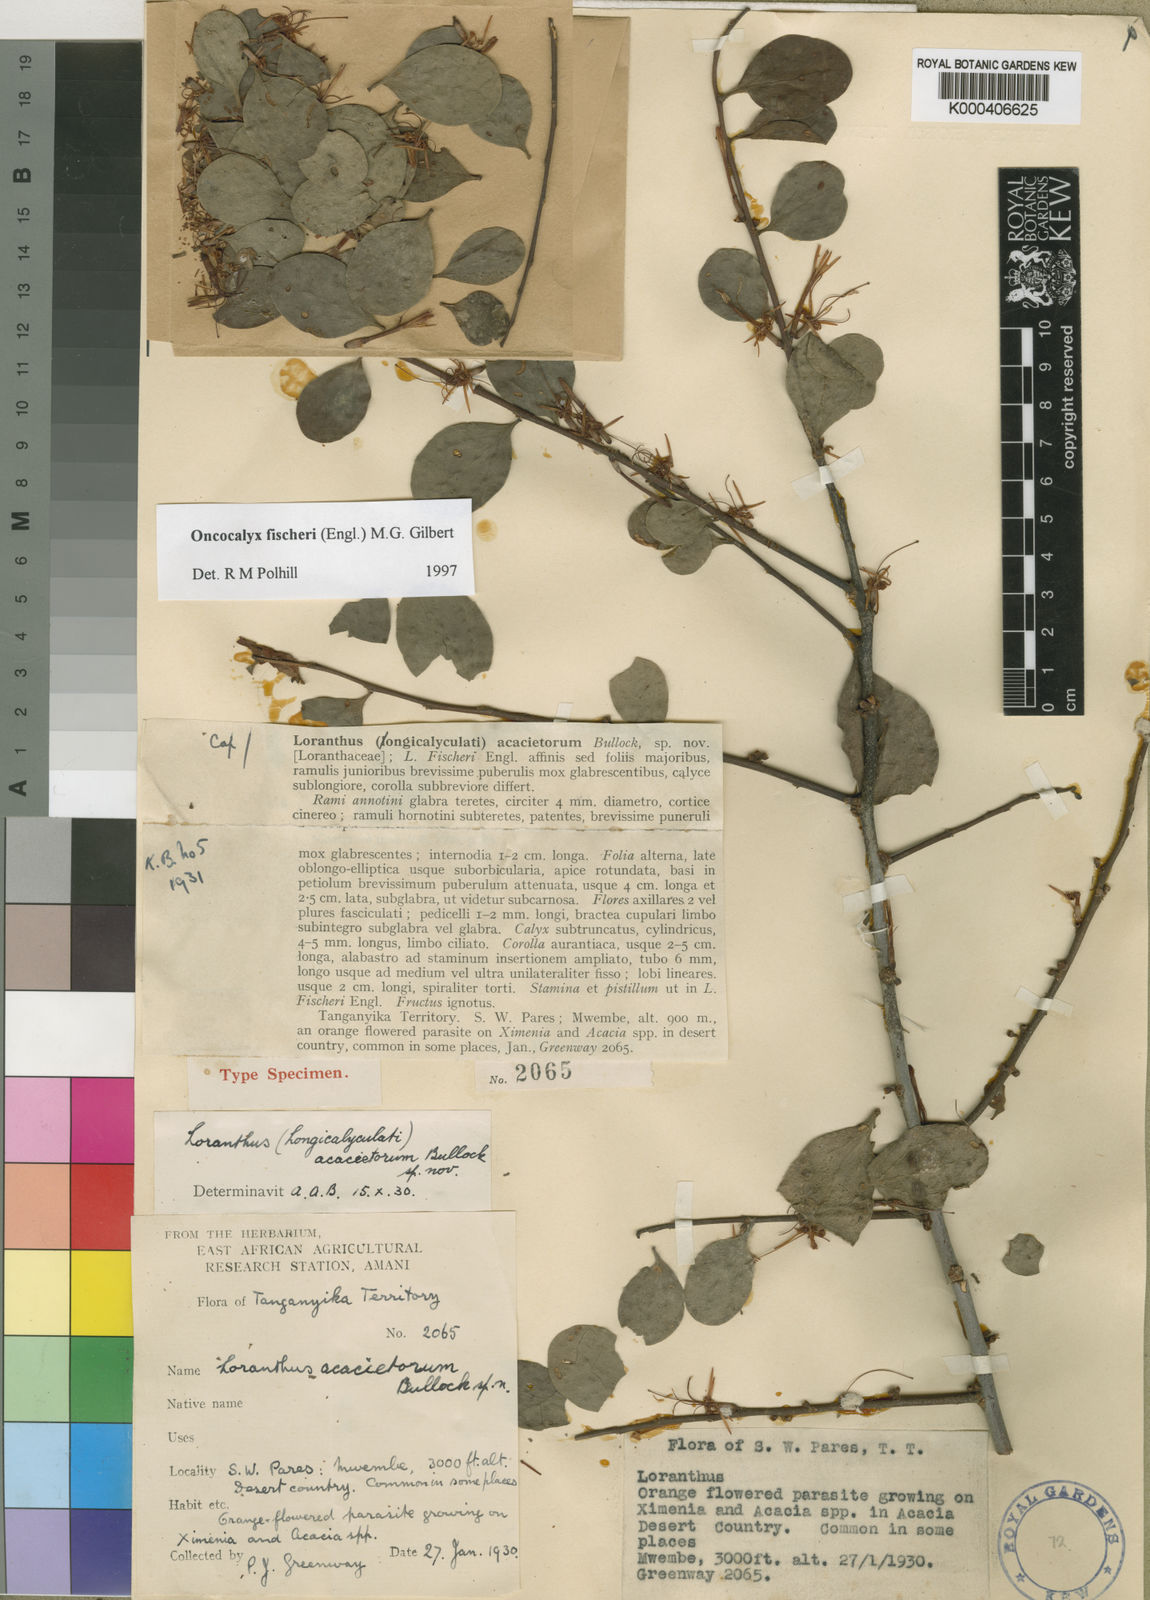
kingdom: Plantae
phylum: Tracheophyta
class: Magnoliopsida
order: Santalales
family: Loranthaceae
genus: Oncocalyx
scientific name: Oncocalyx fischeri
